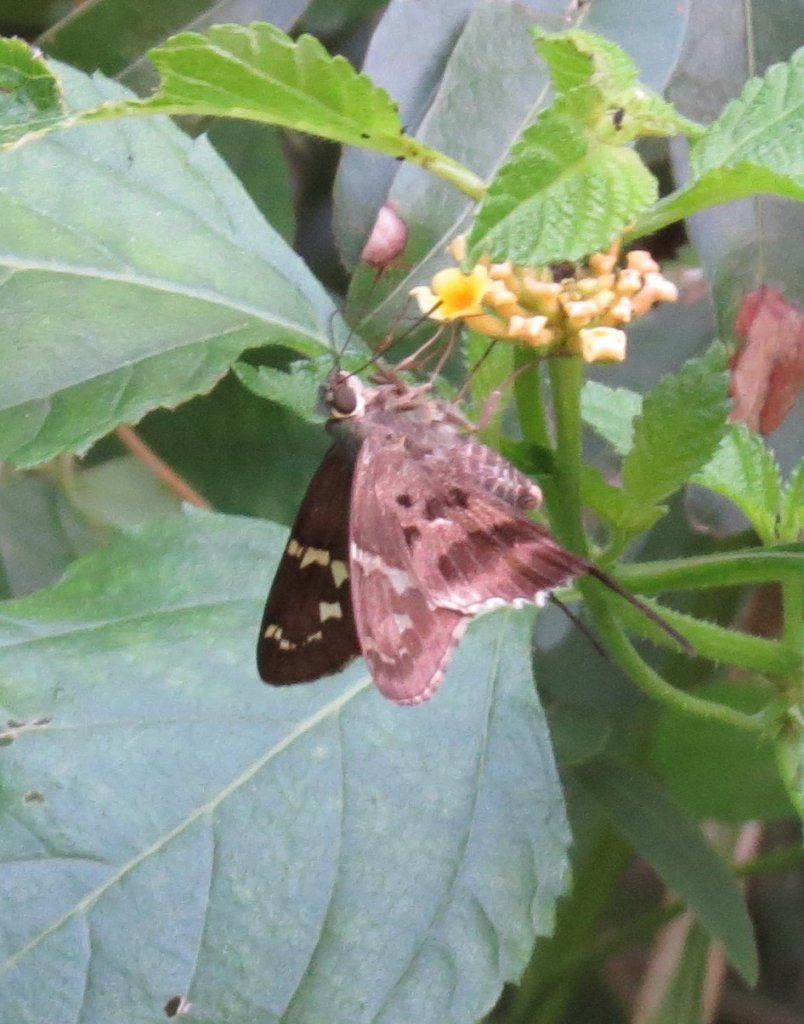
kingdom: Animalia
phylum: Arthropoda
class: Insecta
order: Lepidoptera
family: Hesperiidae
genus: Urbanus
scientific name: Urbanus proteus
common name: Long-tailed Skipper
